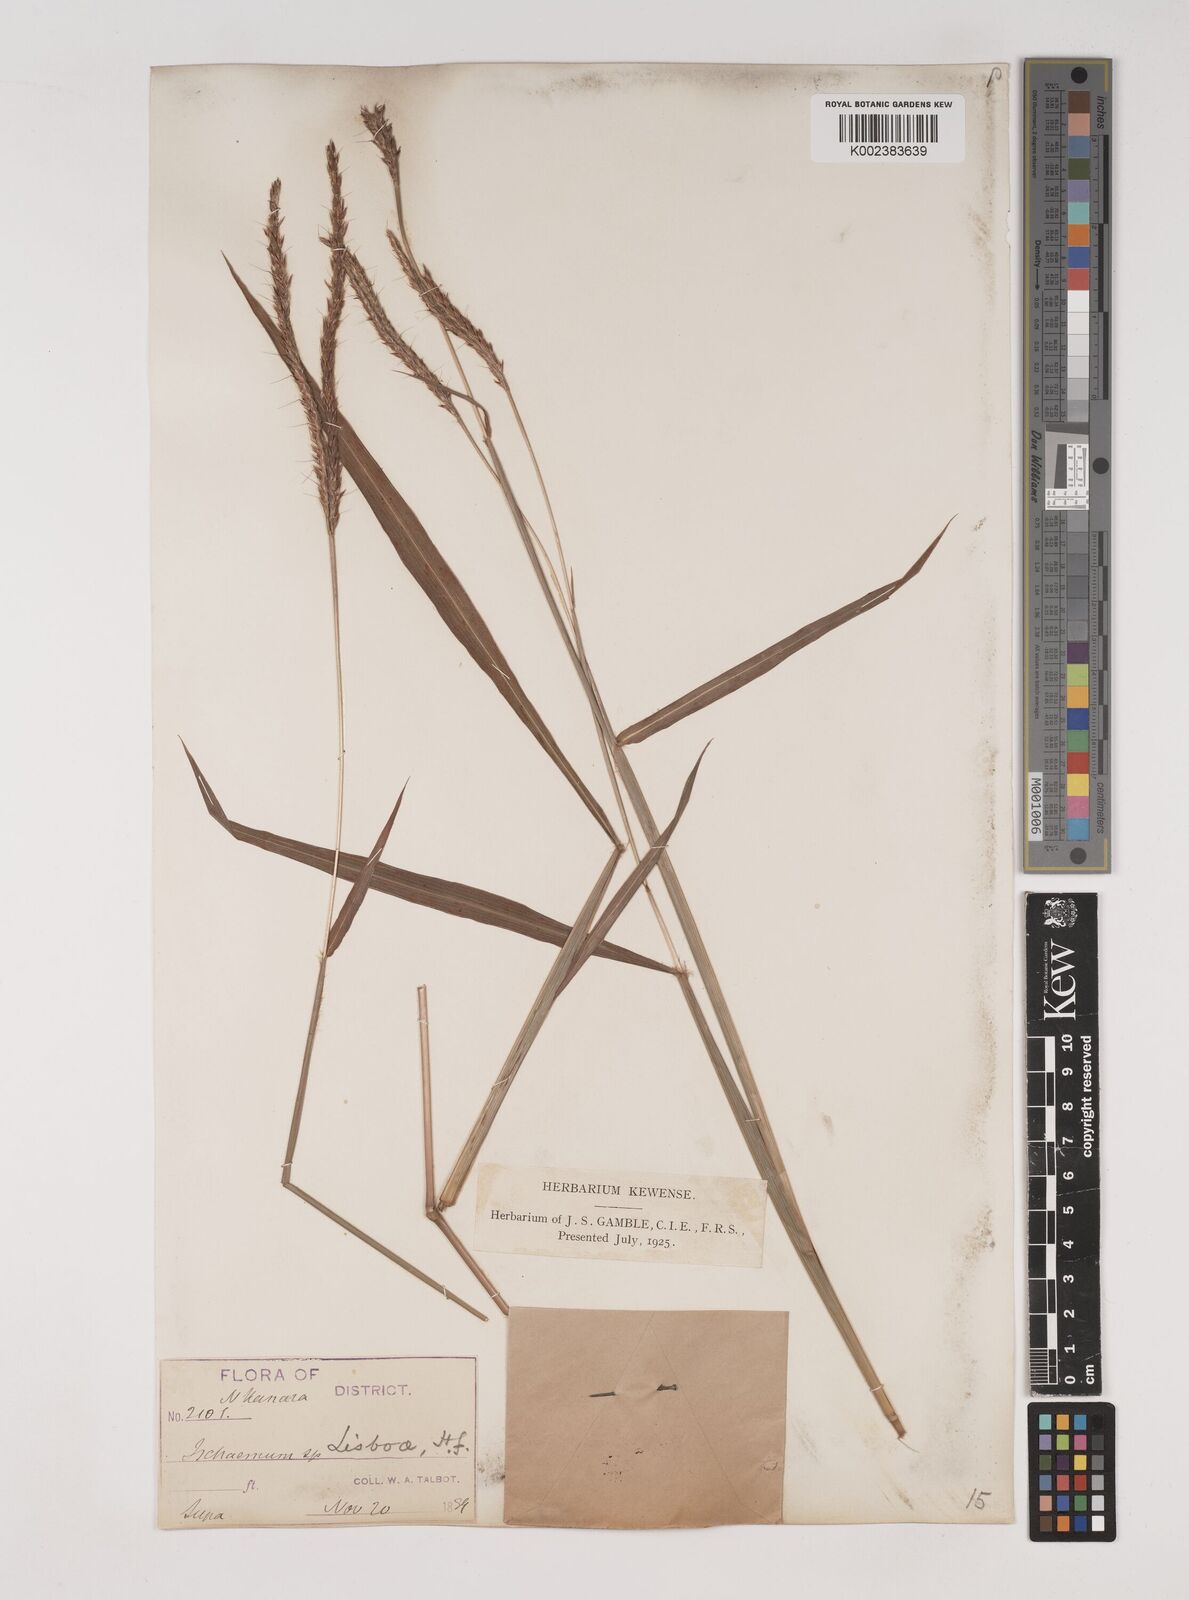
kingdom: Plantae
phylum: Tracheophyta
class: Liliopsida
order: Poales
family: Poaceae
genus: Ischaemum
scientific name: Ischaemum
